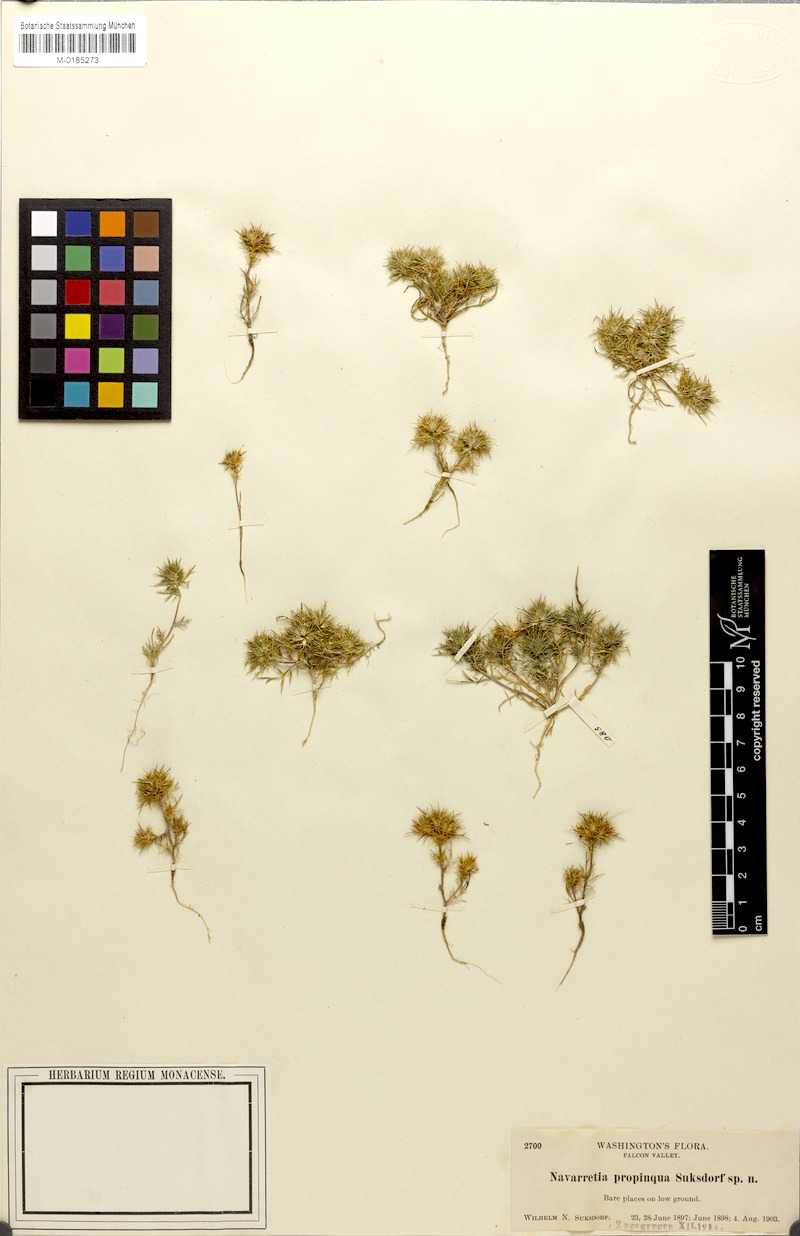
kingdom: Plantae
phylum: Tracheophyta
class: Magnoliopsida
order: Ericales
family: Polemoniaceae
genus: Navarretia
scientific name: Navarretia intertexta
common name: Needle-leaved navarretia
